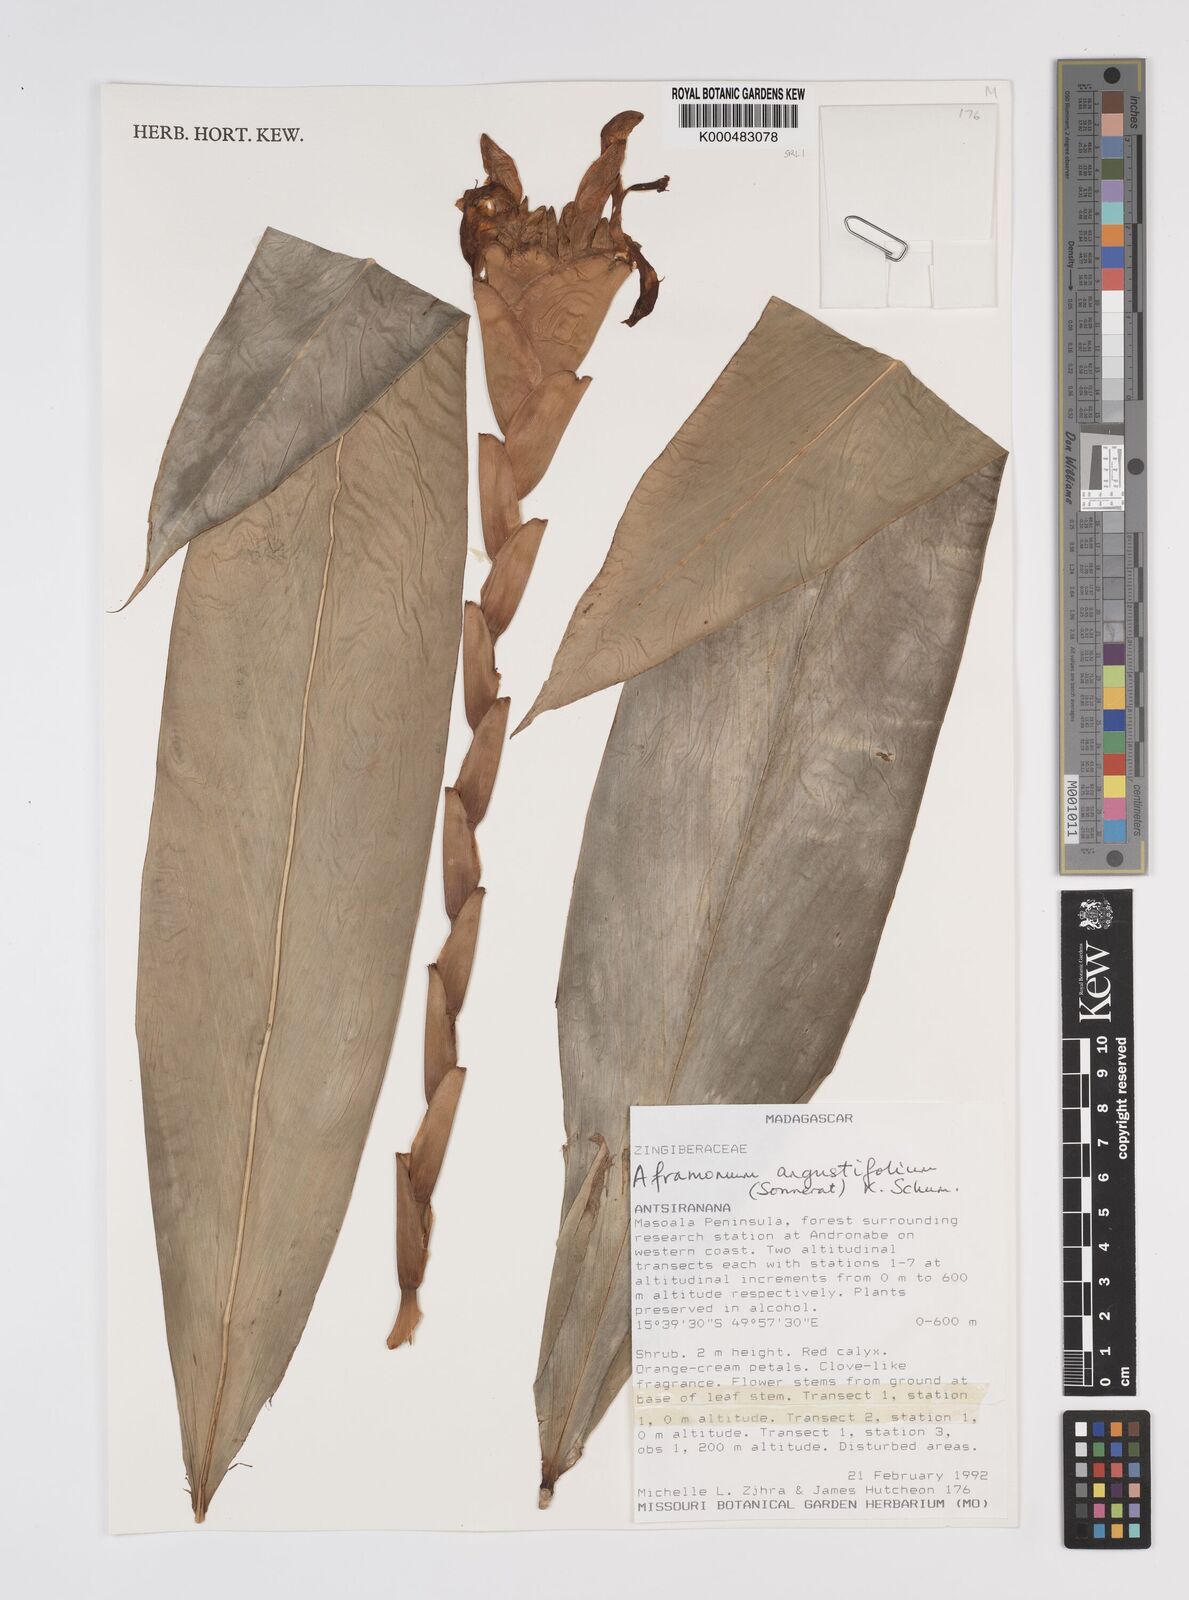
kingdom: Plantae
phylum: Tracheophyta
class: Liliopsida
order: Zingiberales
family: Zingiberaceae
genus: Aframomum
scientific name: Aframomum angustifolium
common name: Guinea grains
